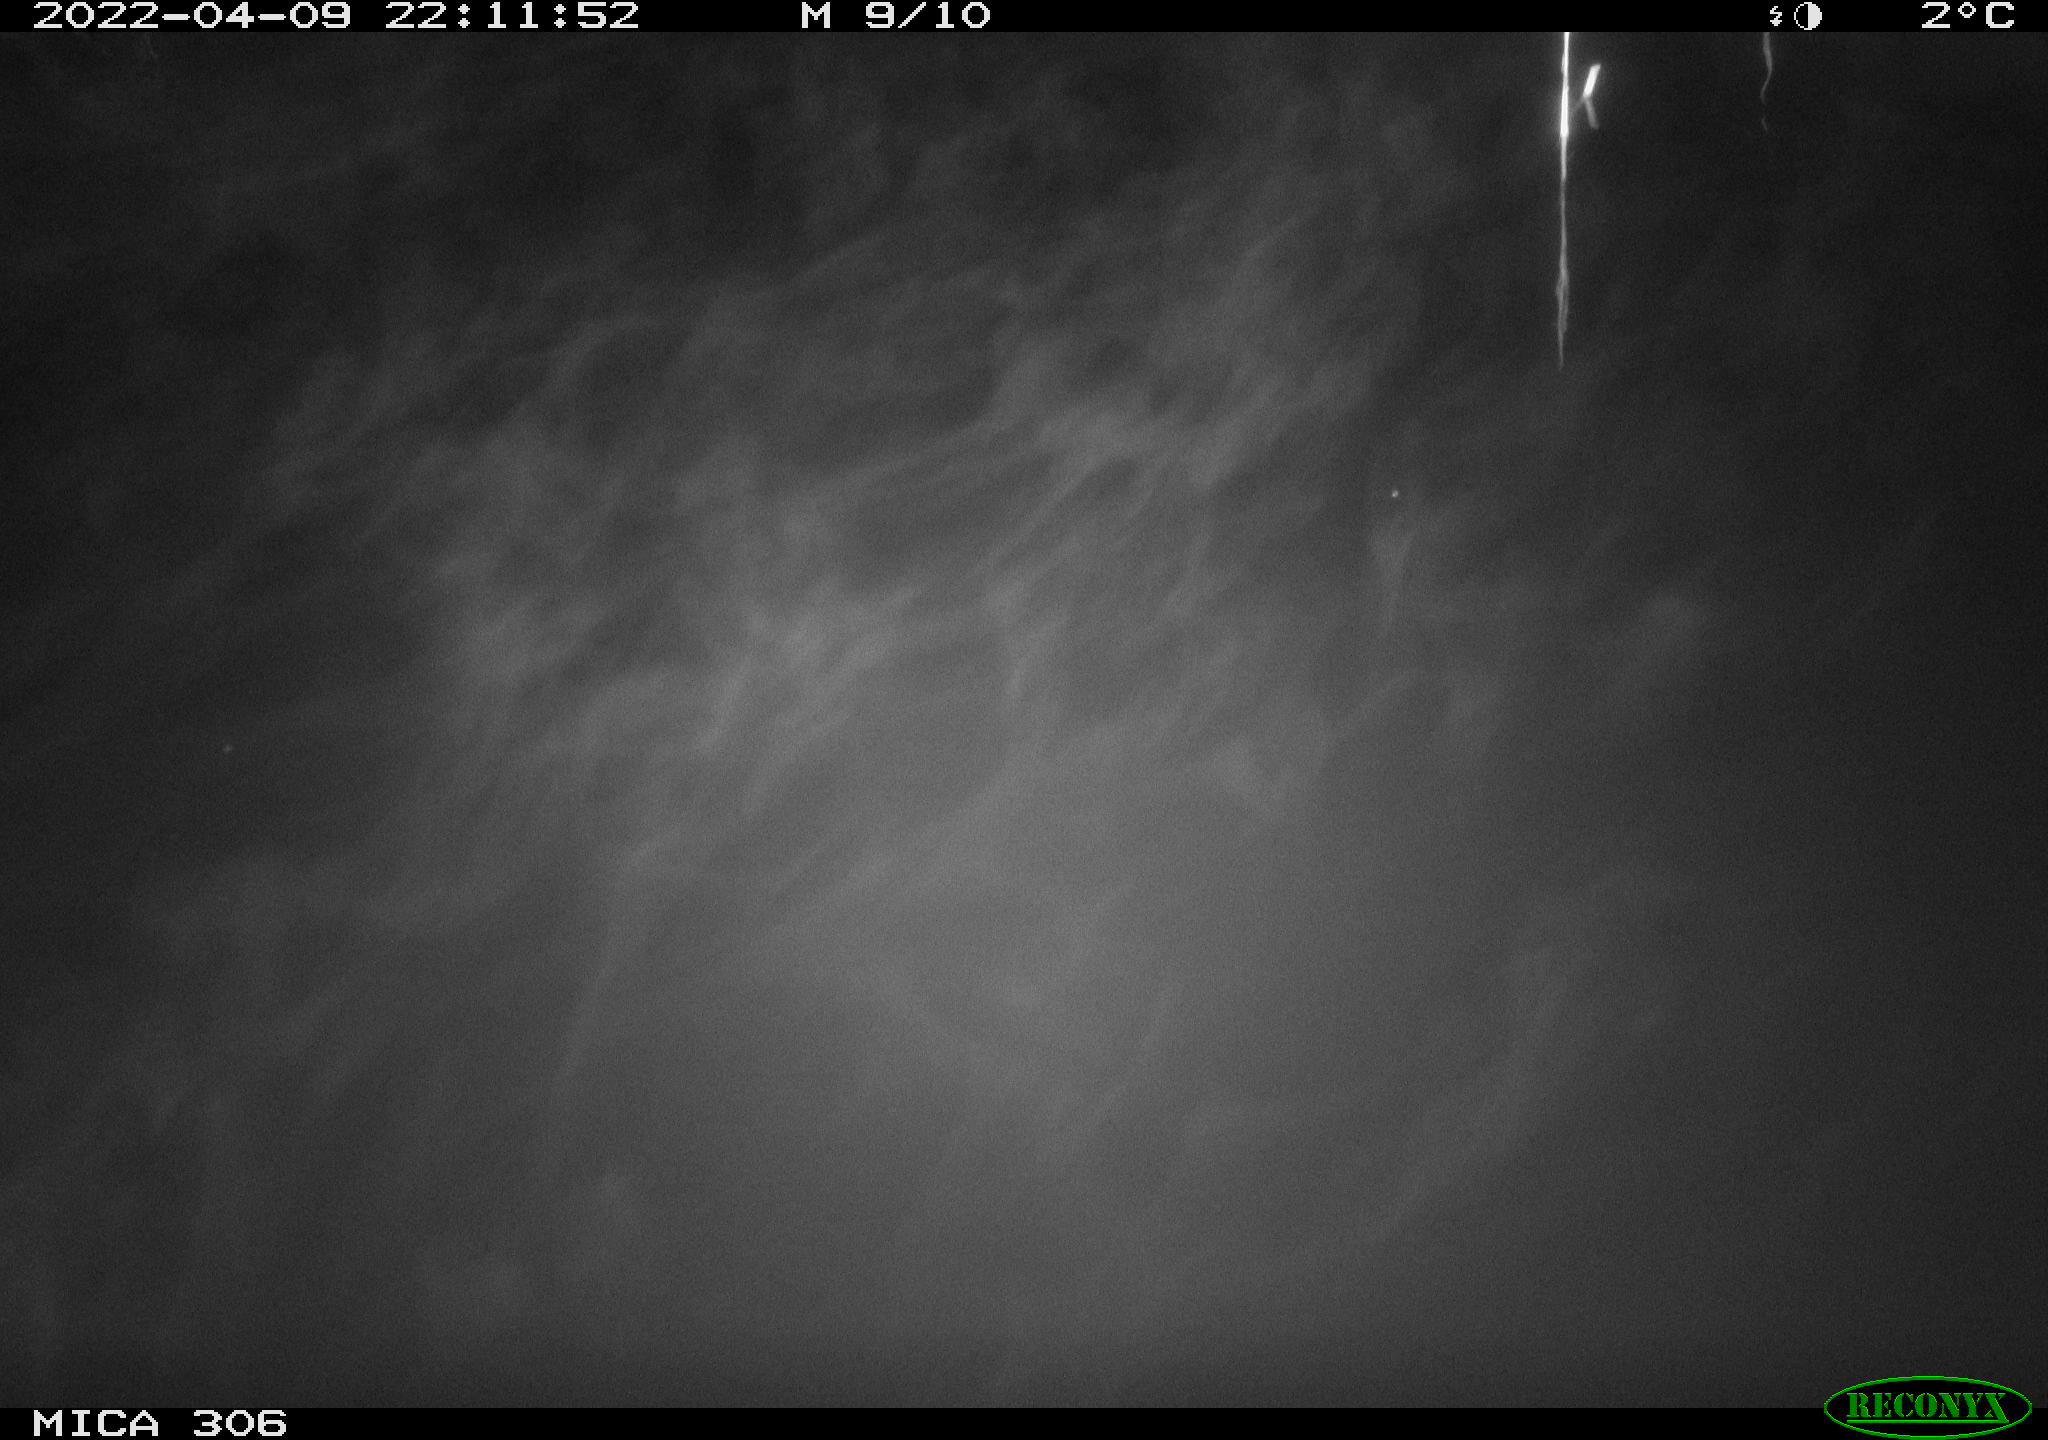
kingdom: Animalia
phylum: Chordata
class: Aves
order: Anseriformes
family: Anatidae
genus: Anas
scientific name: Anas platyrhynchos
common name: Mallard
